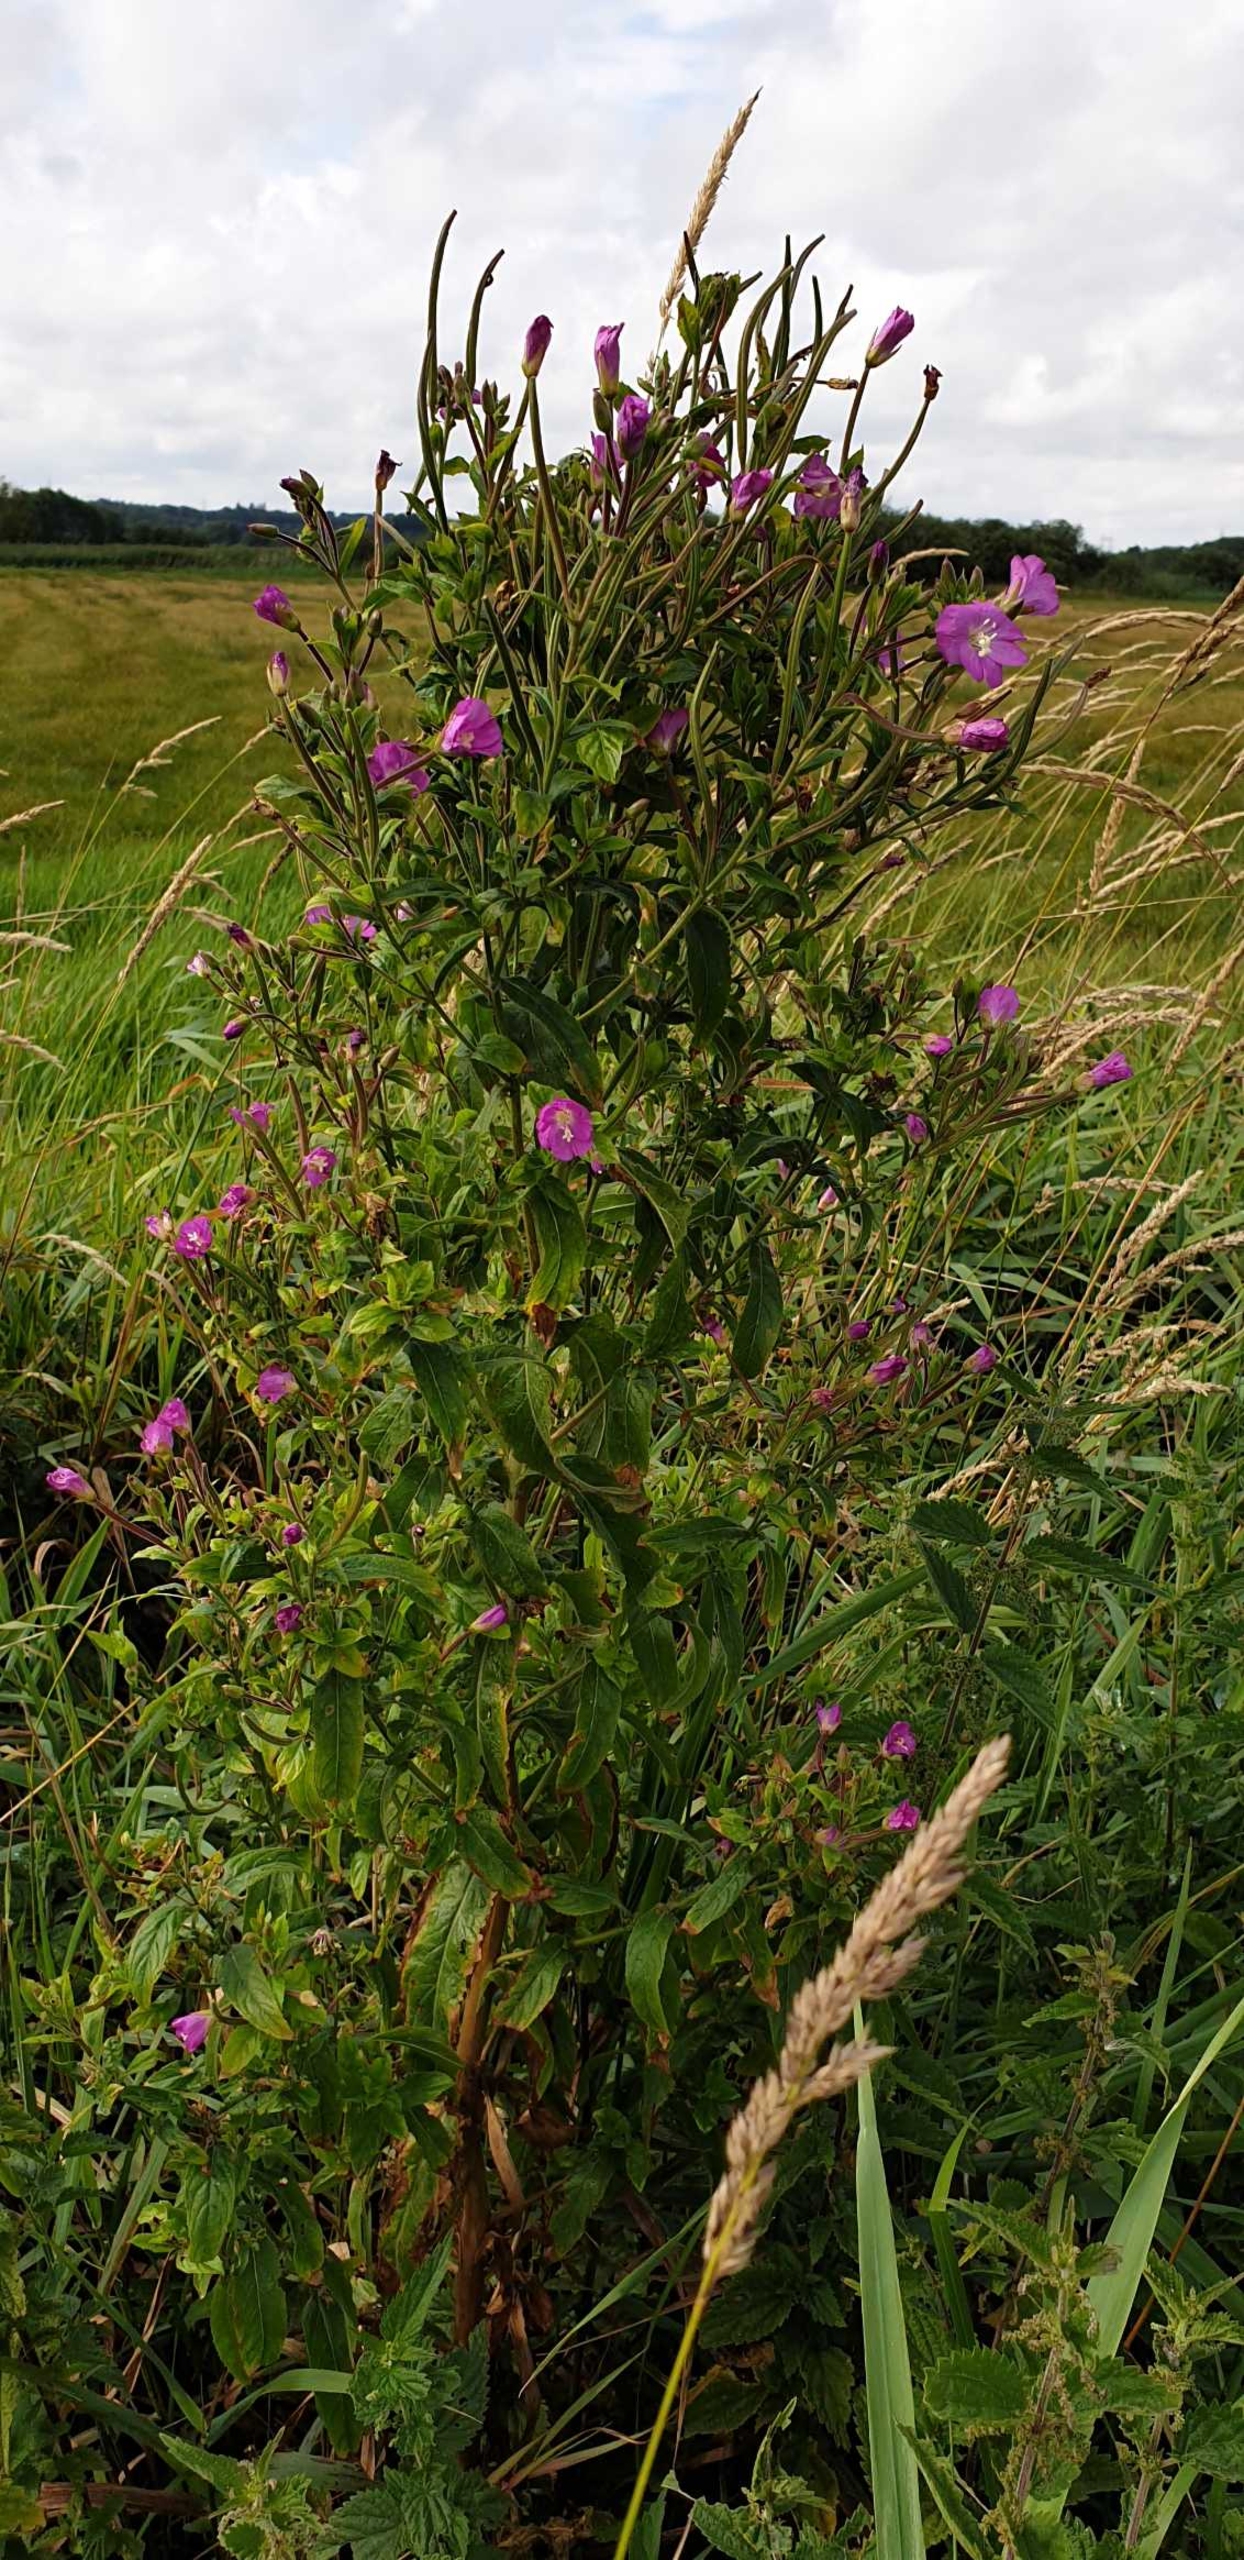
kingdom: Plantae
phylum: Tracheophyta
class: Magnoliopsida
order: Myrtales
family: Onagraceae
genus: Epilobium
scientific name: Epilobium hirsutum
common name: Lådden dueurt
